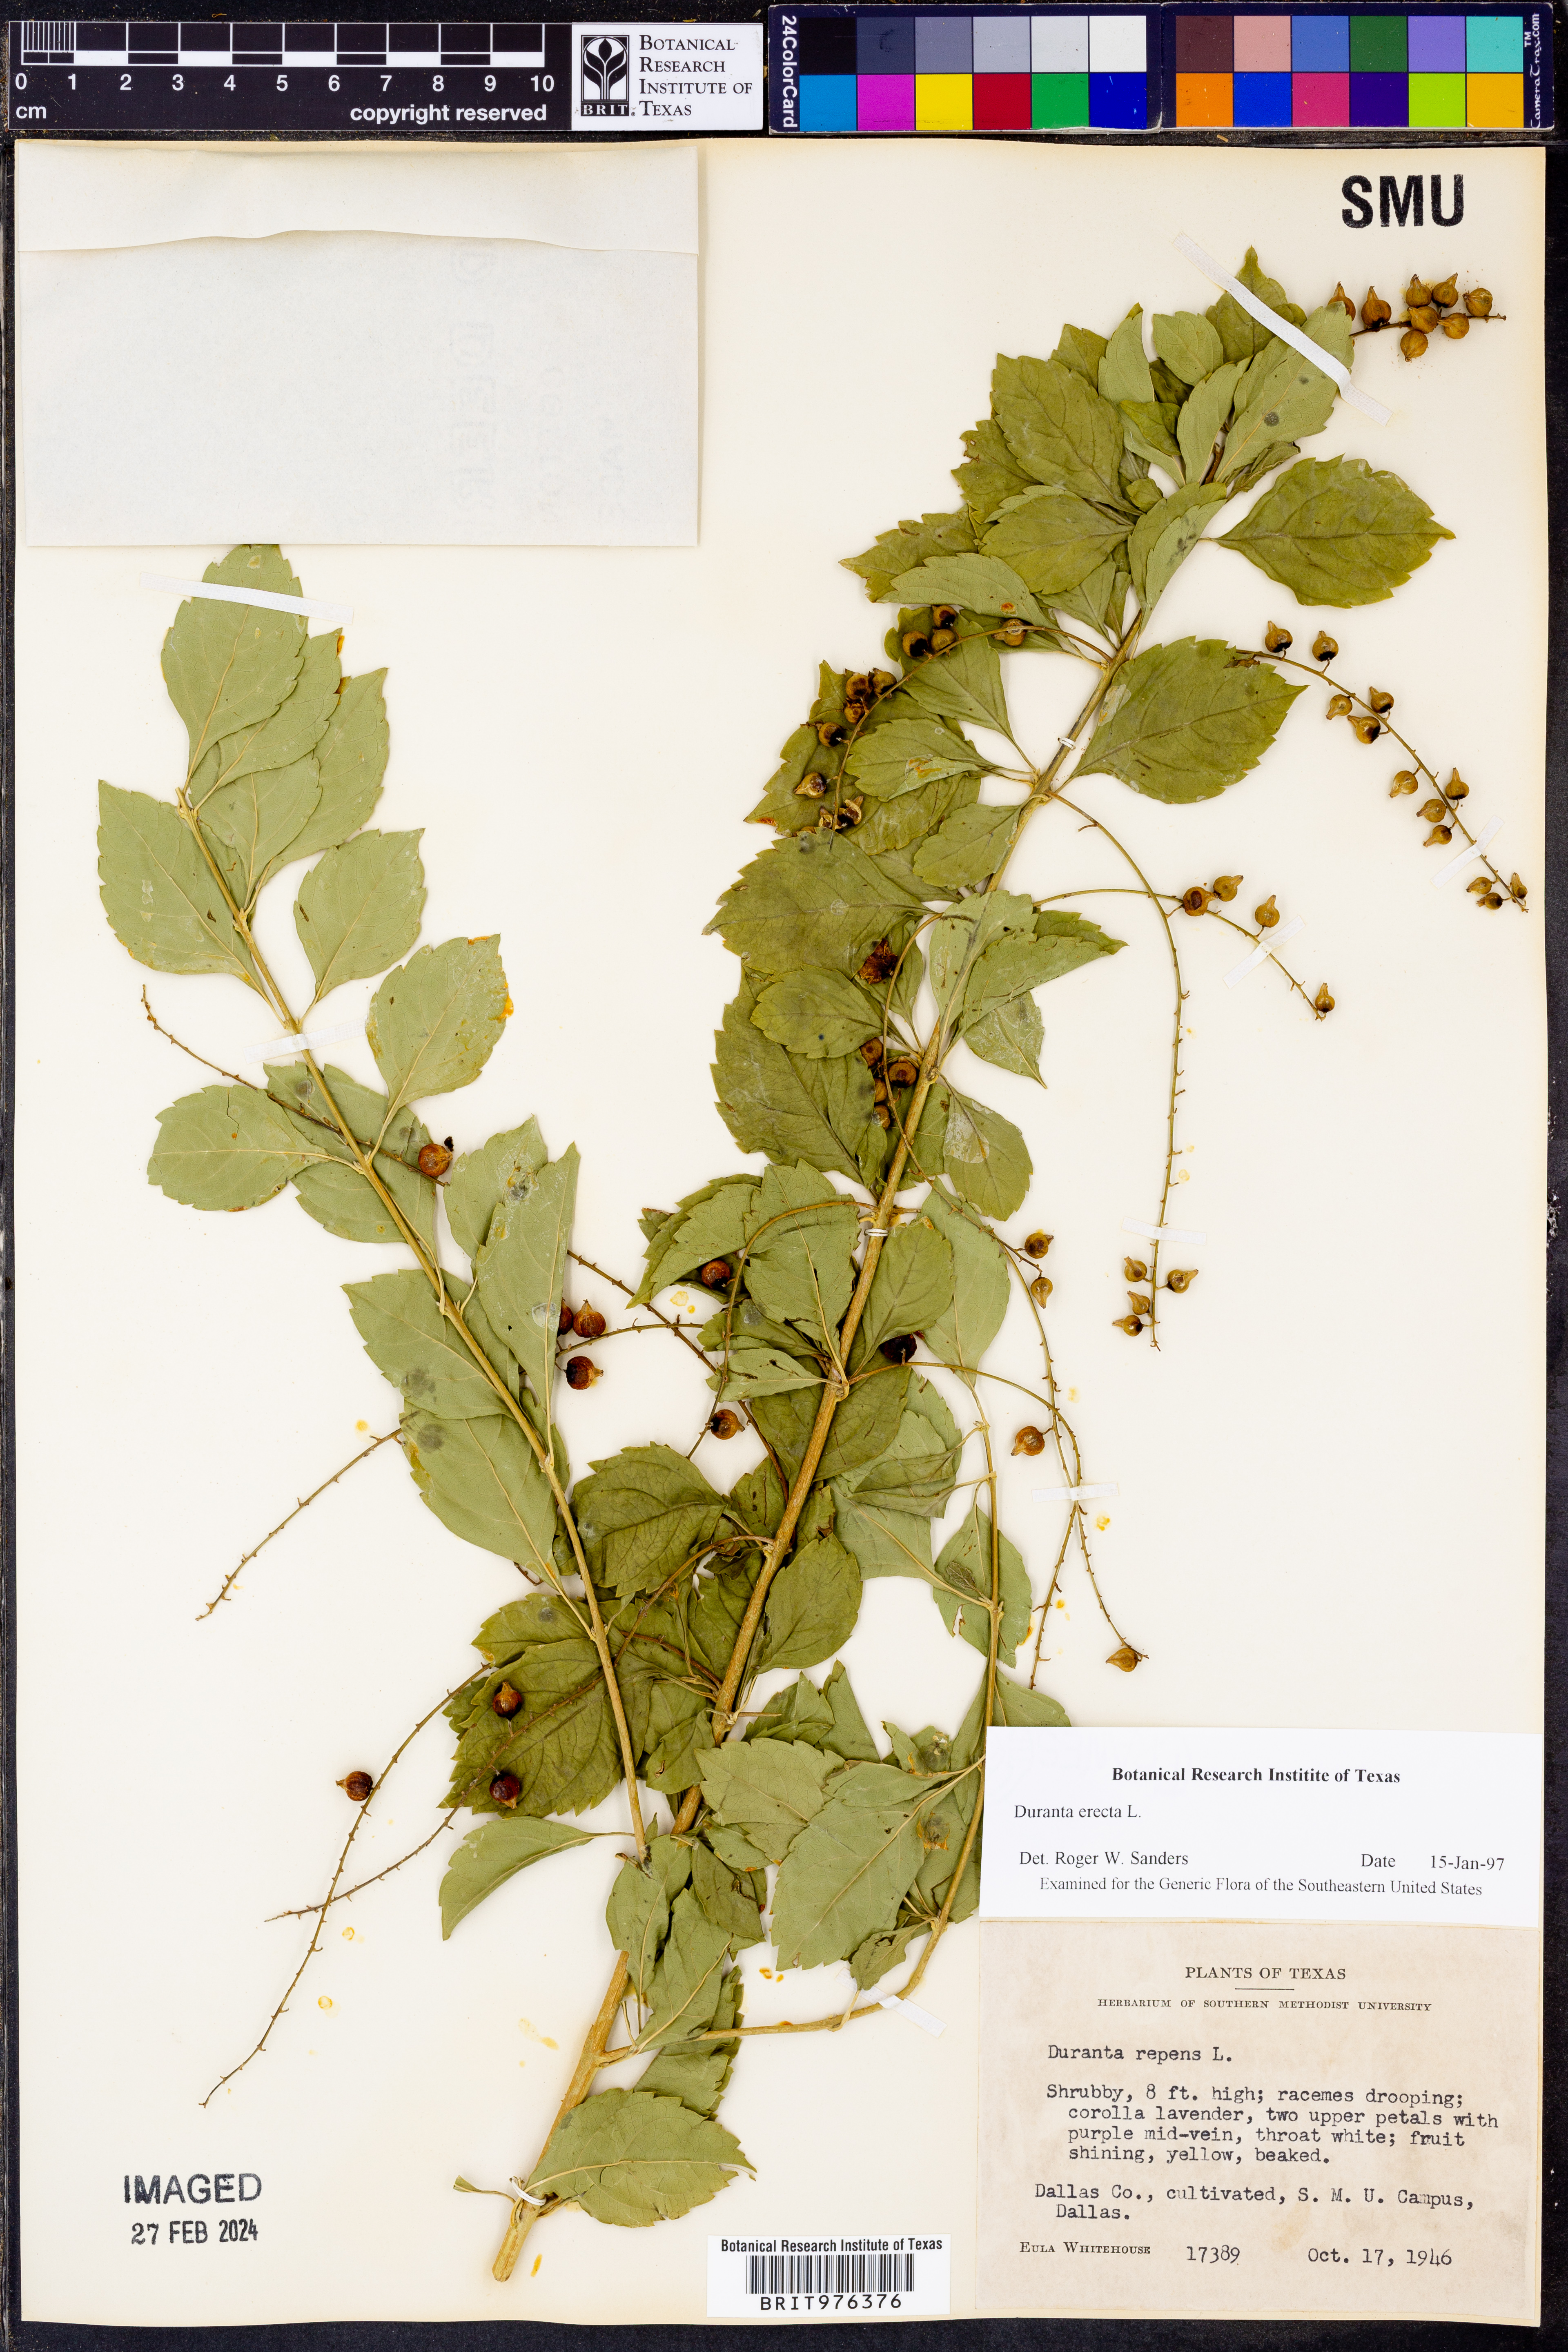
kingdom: Plantae
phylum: Tracheophyta
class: Magnoliopsida
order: Lamiales
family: Verbenaceae
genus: Duranta
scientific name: Duranta
